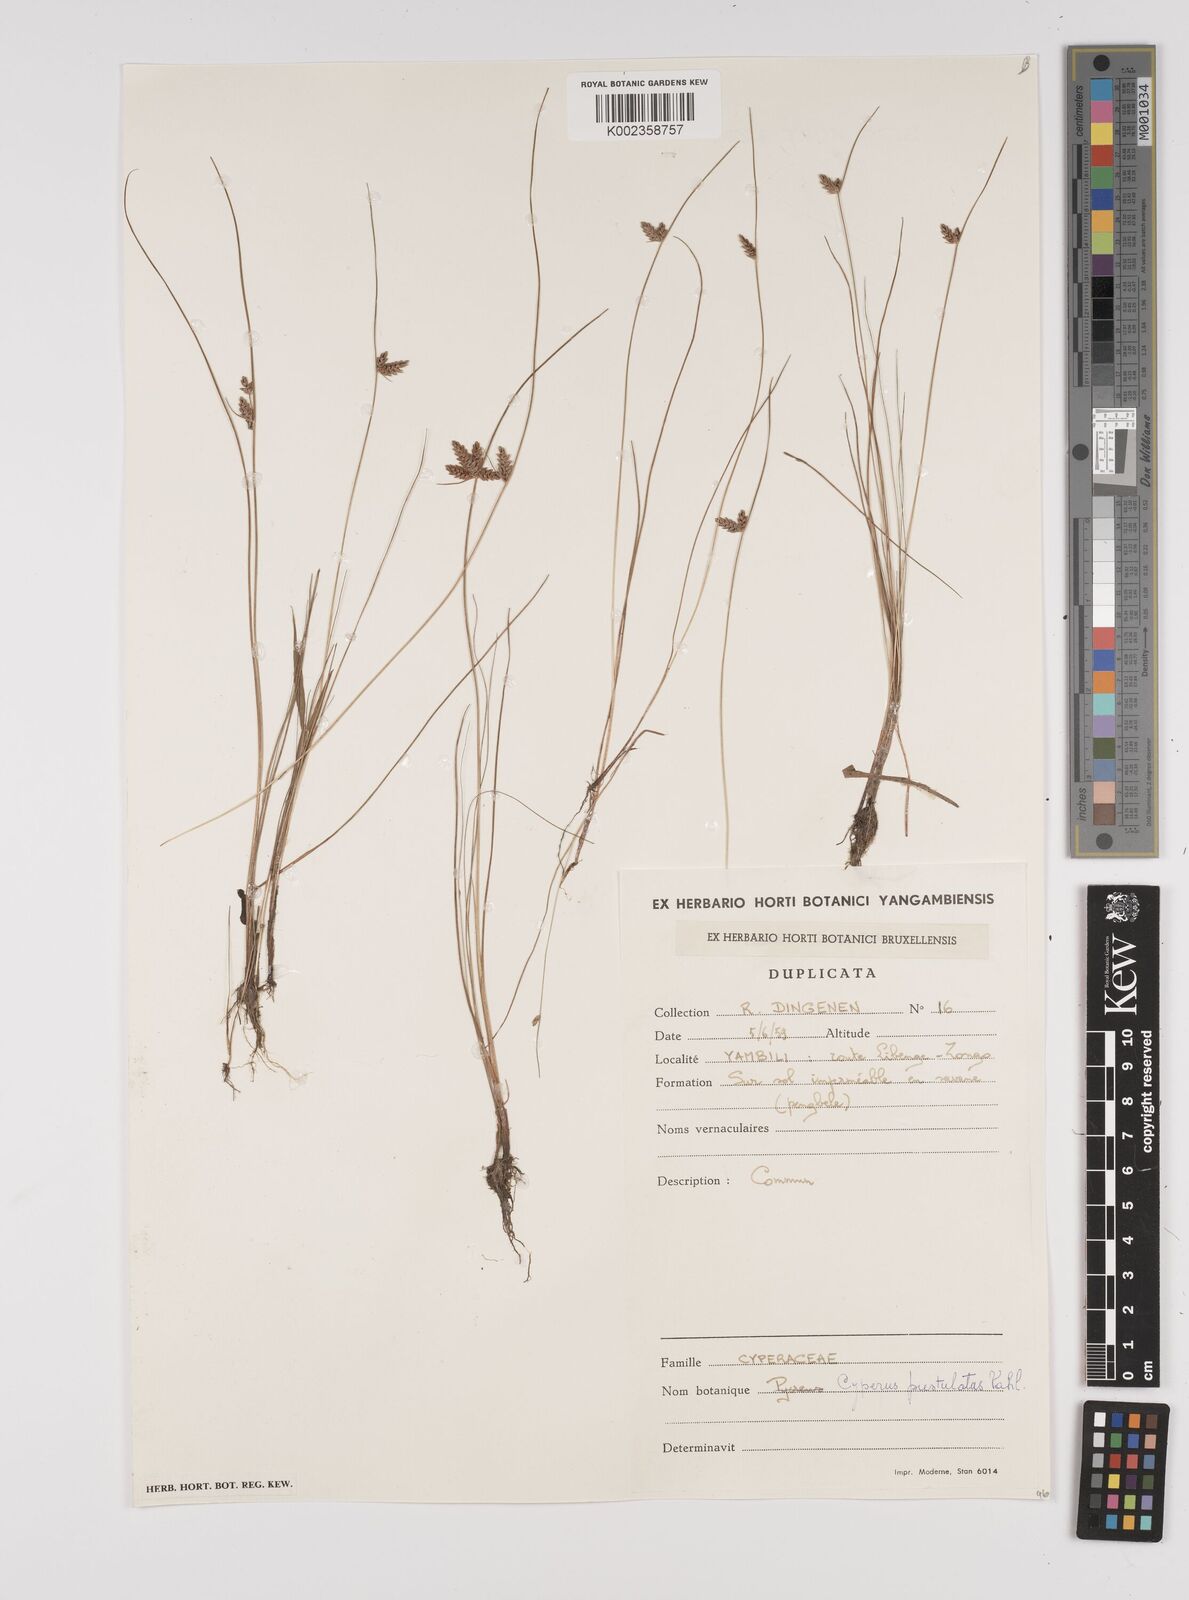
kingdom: Plantae
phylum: Tracheophyta
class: Liliopsida
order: Poales
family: Cyperaceae
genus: Cyperus
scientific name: Cyperus pustulatus
